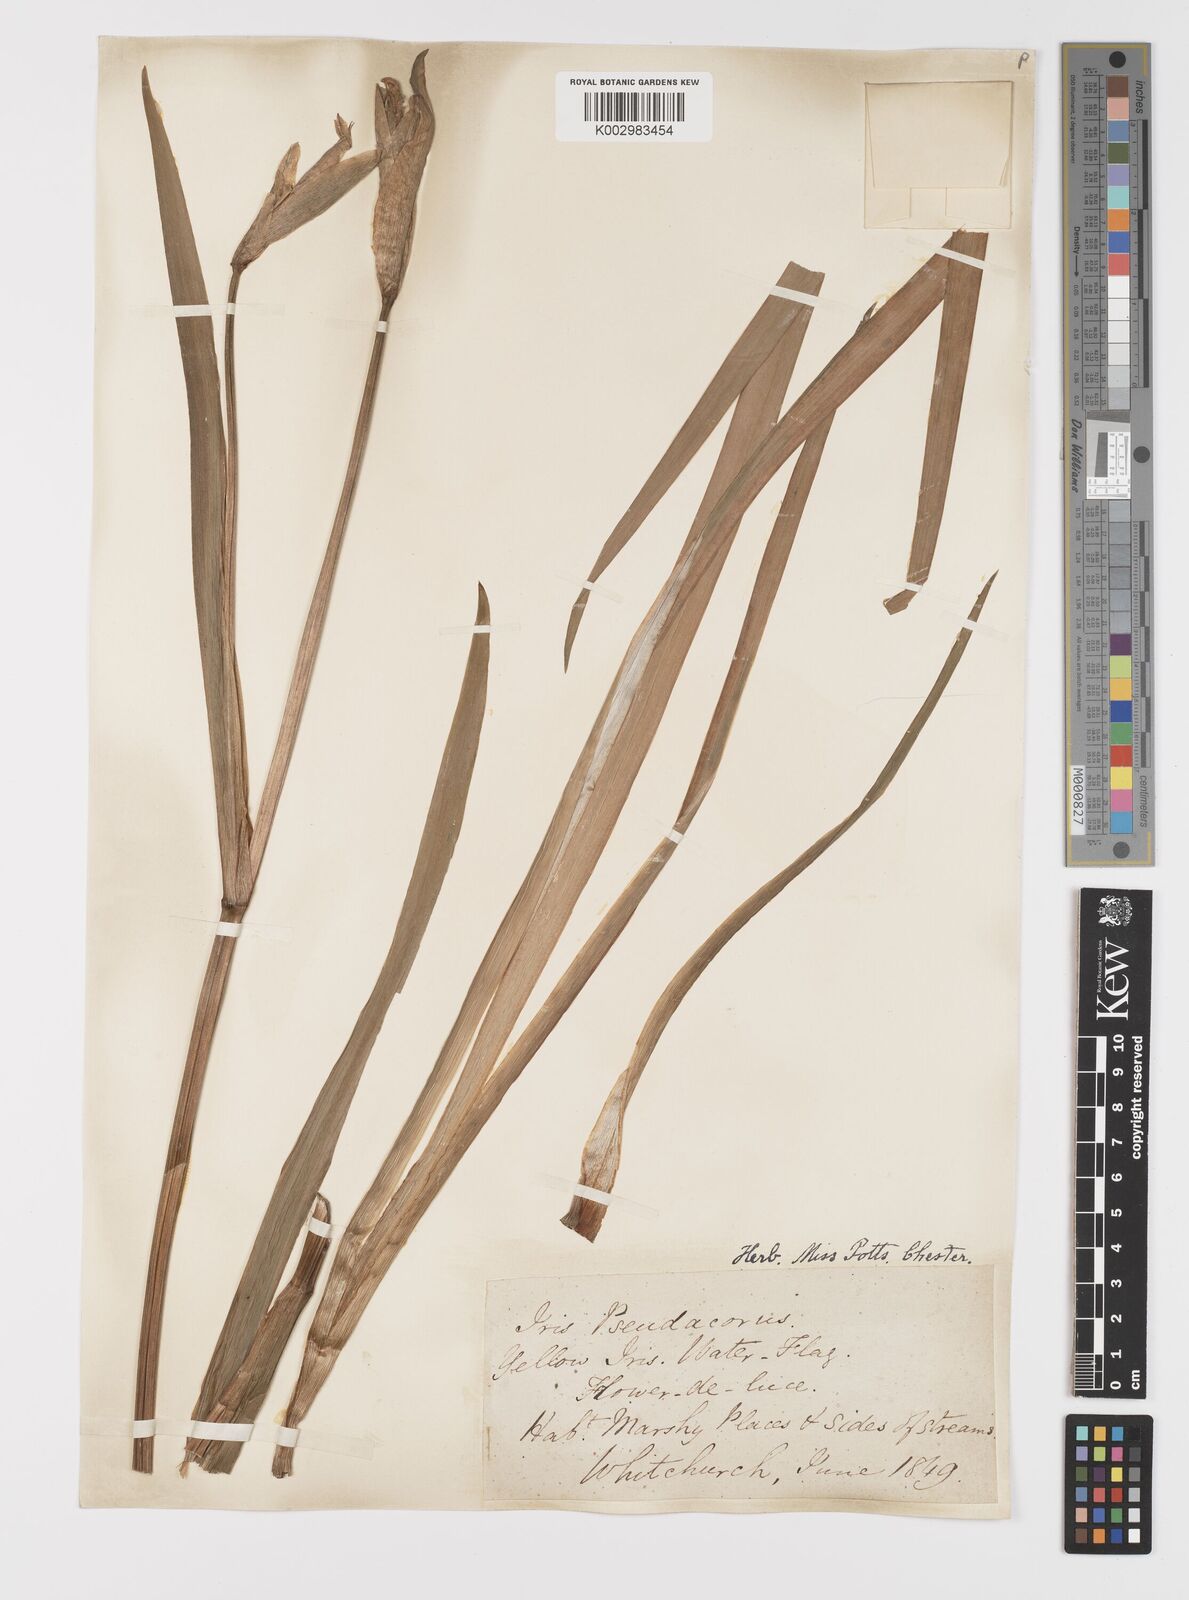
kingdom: Plantae
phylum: Tracheophyta
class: Liliopsida
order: Asparagales
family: Iridaceae
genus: Iris
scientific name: Iris pseudacorus
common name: Yellow flag
